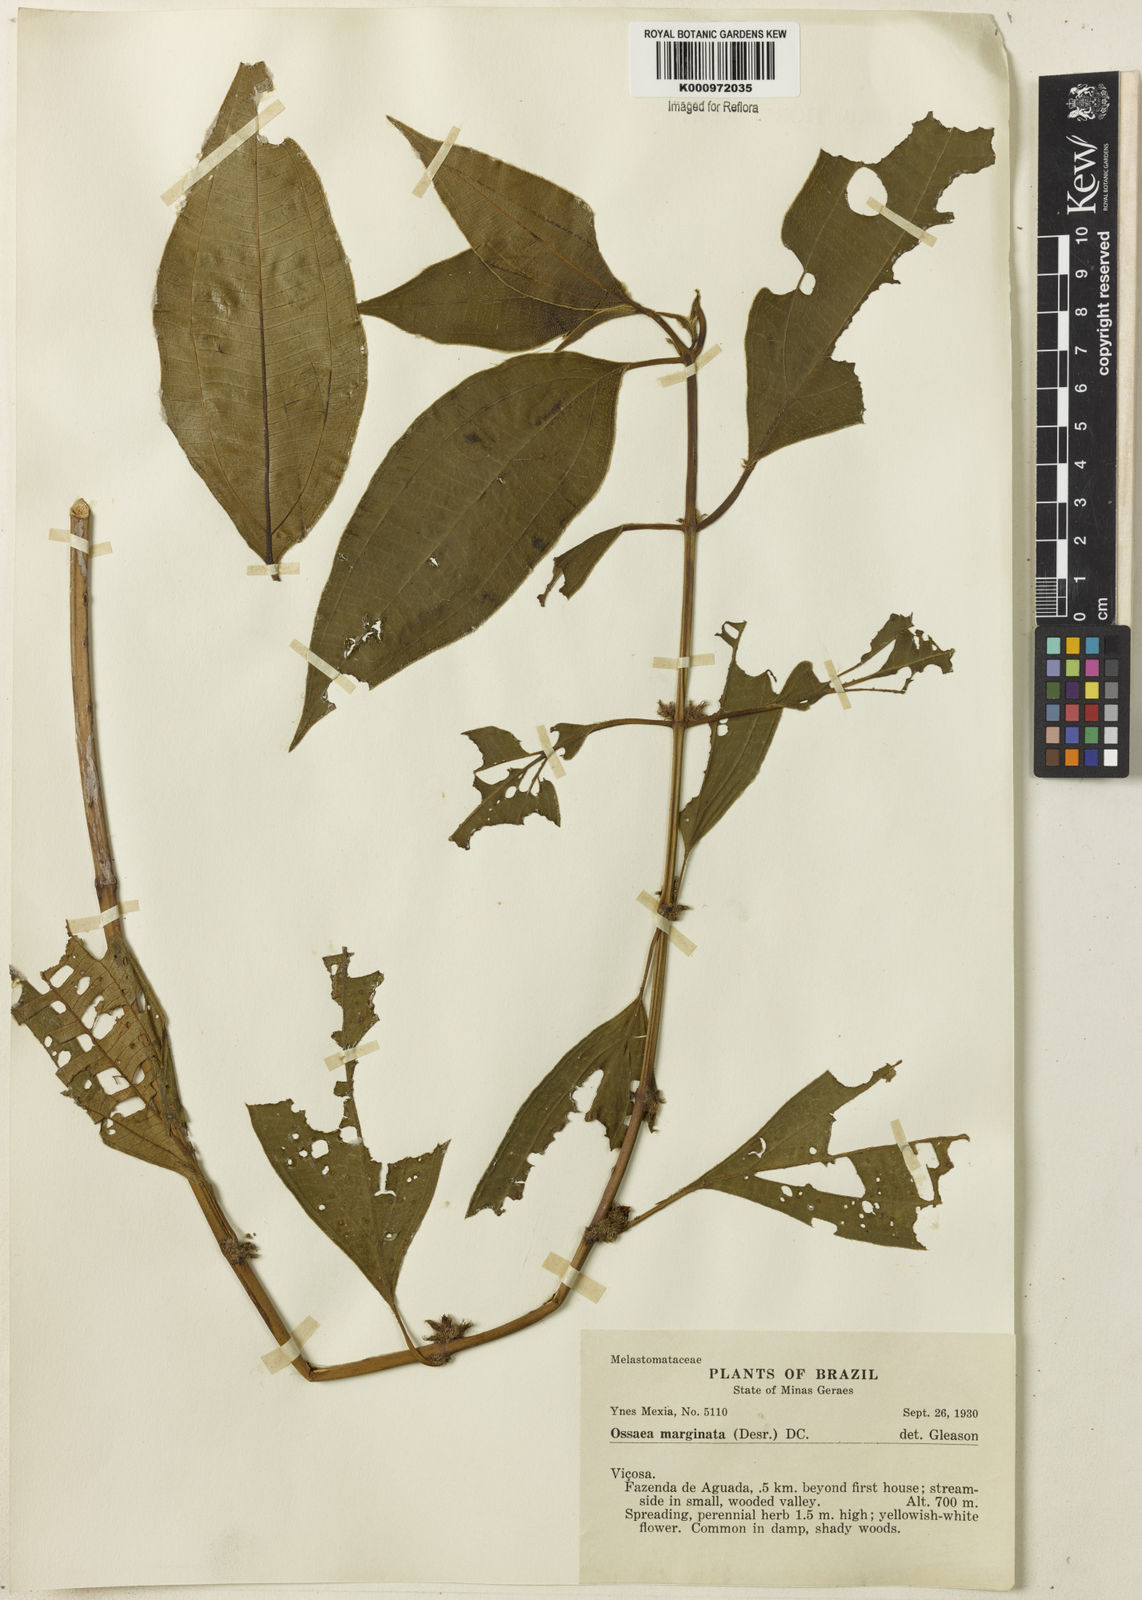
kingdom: Plantae
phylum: Tracheophyta
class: Magnoliopsida
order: Myrtales
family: Melastomataceae
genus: Miconia
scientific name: Miconia leamarginata
